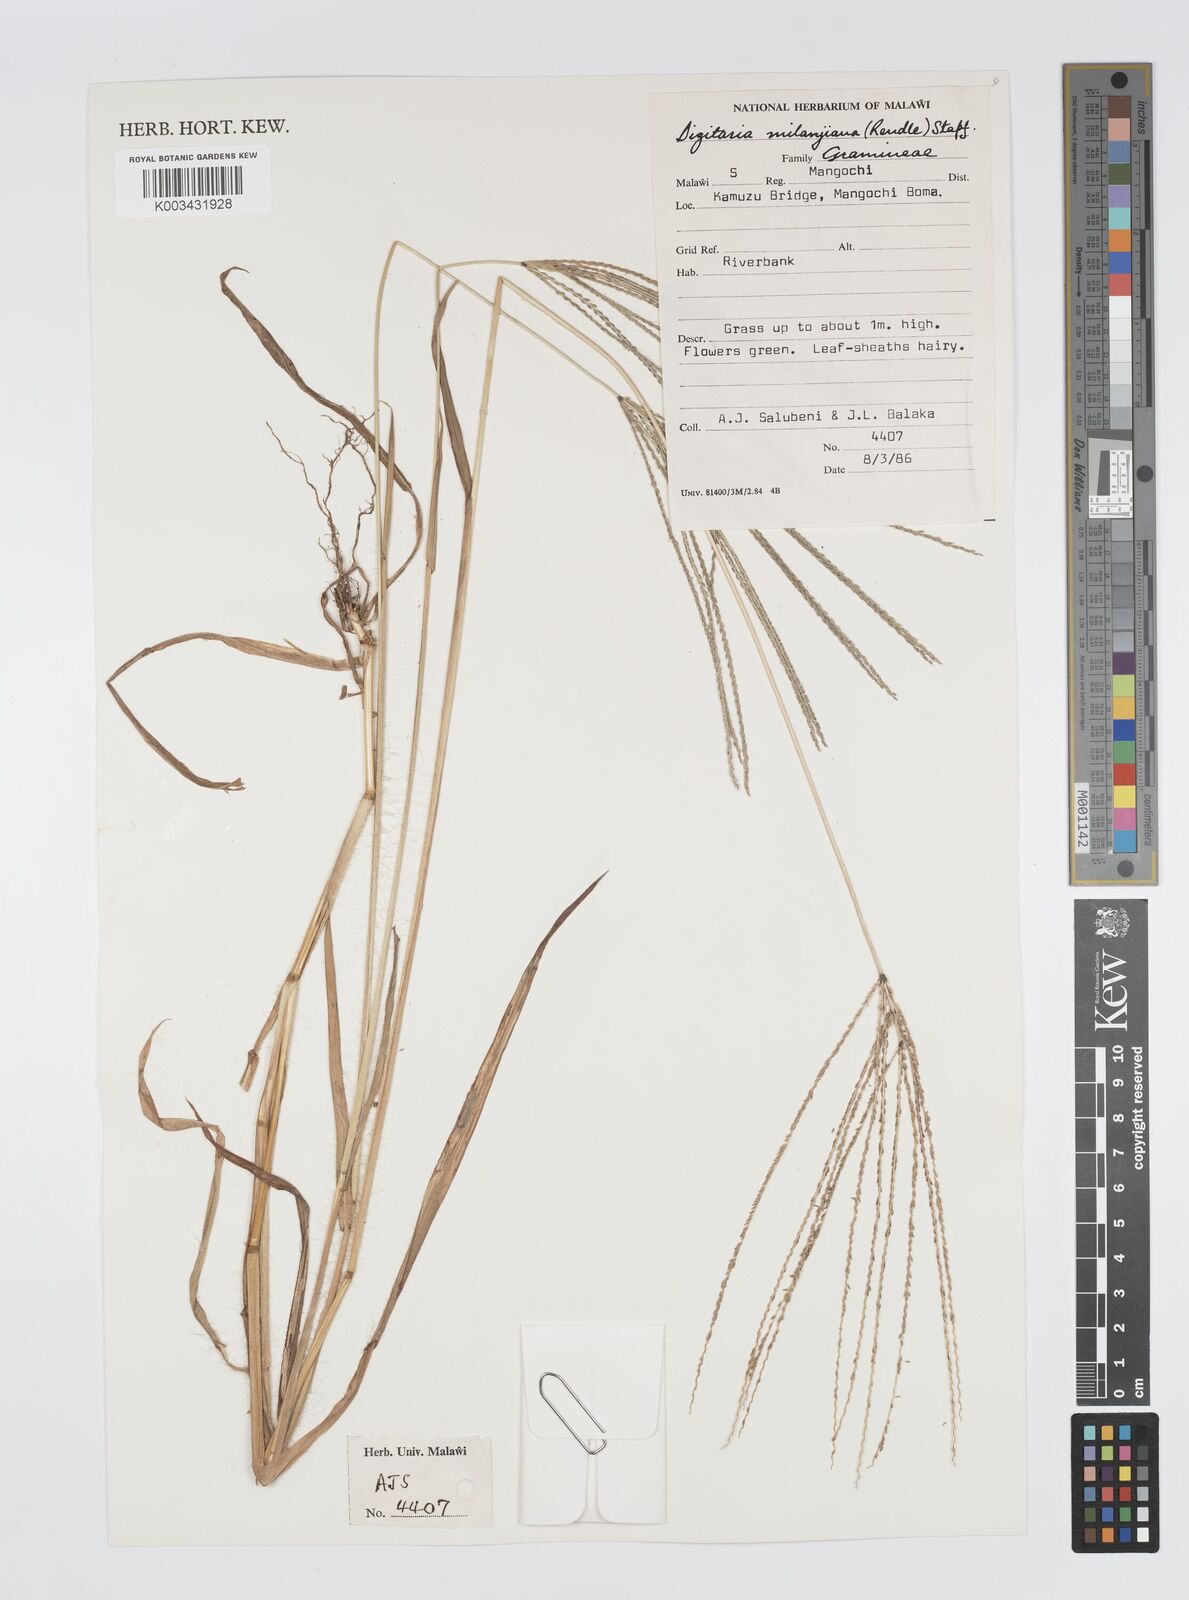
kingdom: Plantae
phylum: Tracheophyta
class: Liliopsida
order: Poales
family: Poaceae
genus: Digitaria
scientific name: Digitaria milanjiana
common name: Madagascar crabgrass
